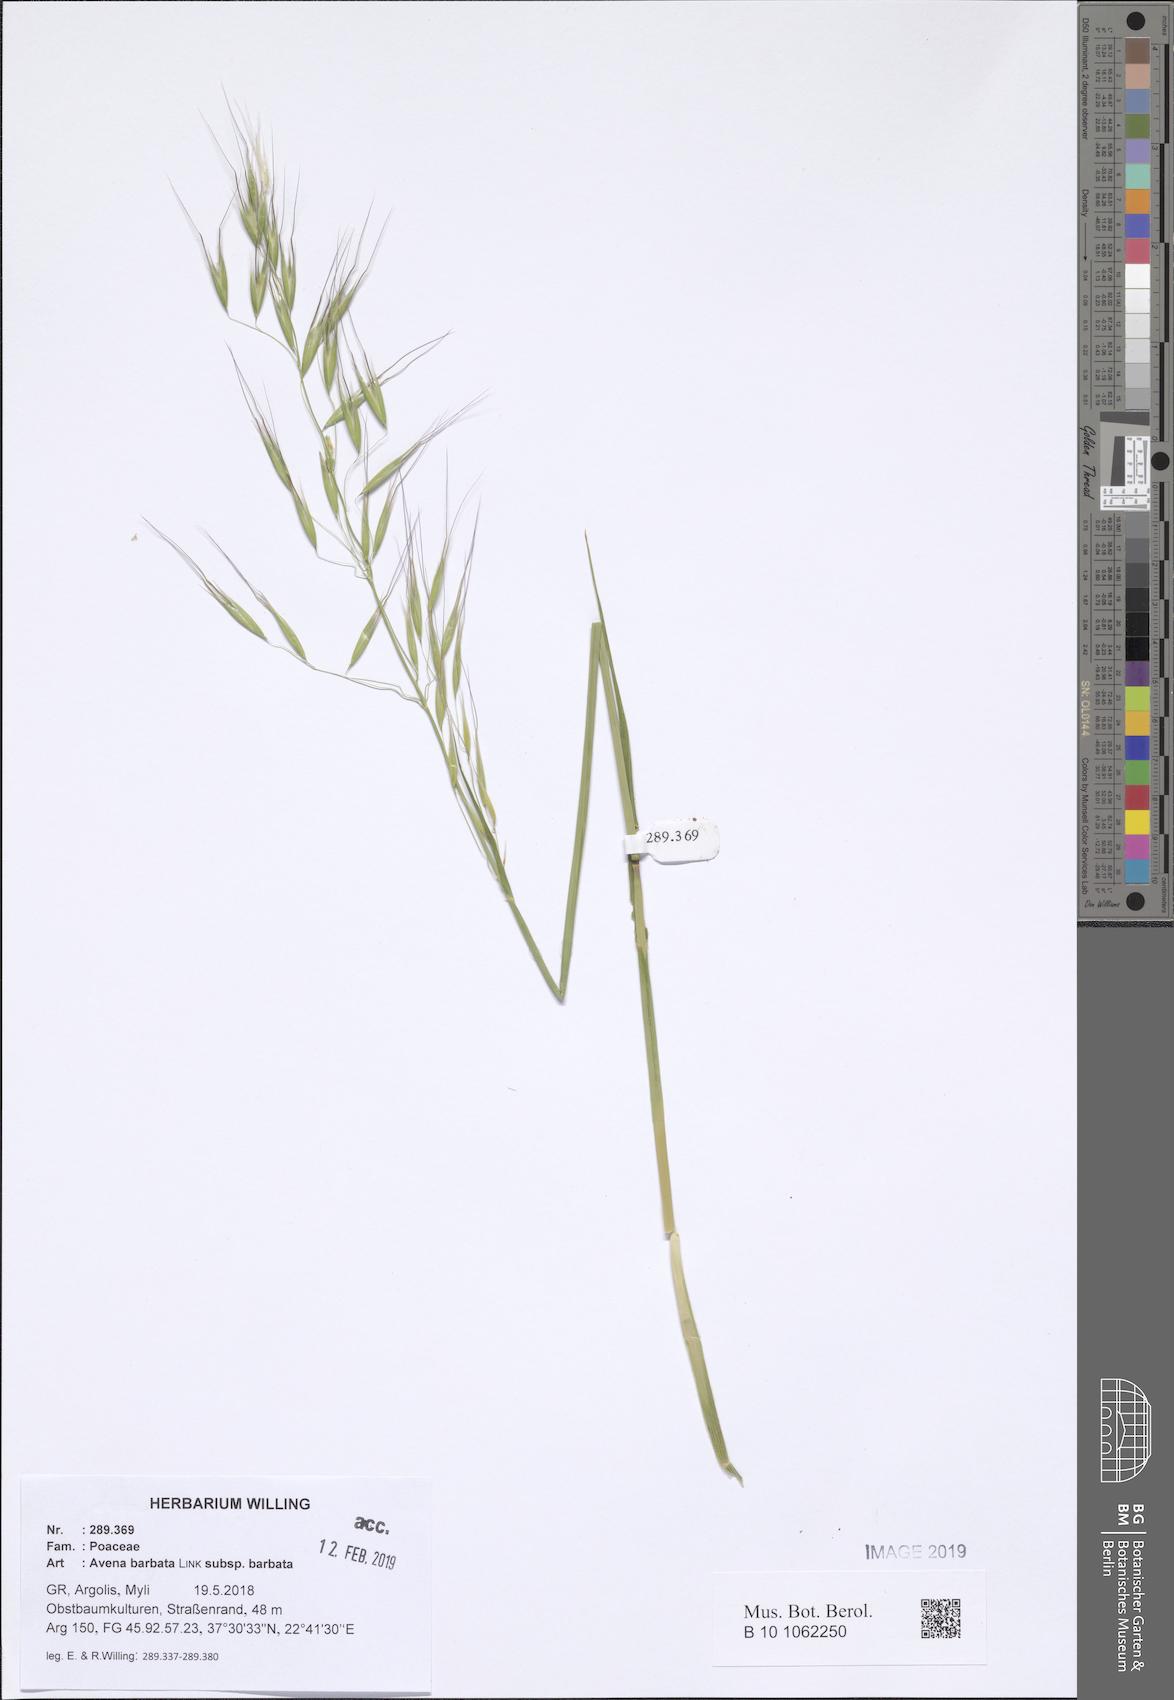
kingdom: Plantae
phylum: Tracheophyta
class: Liliopsida
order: Poales
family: Poaceae
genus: Avena
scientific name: Avena barbata
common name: Slender oat
